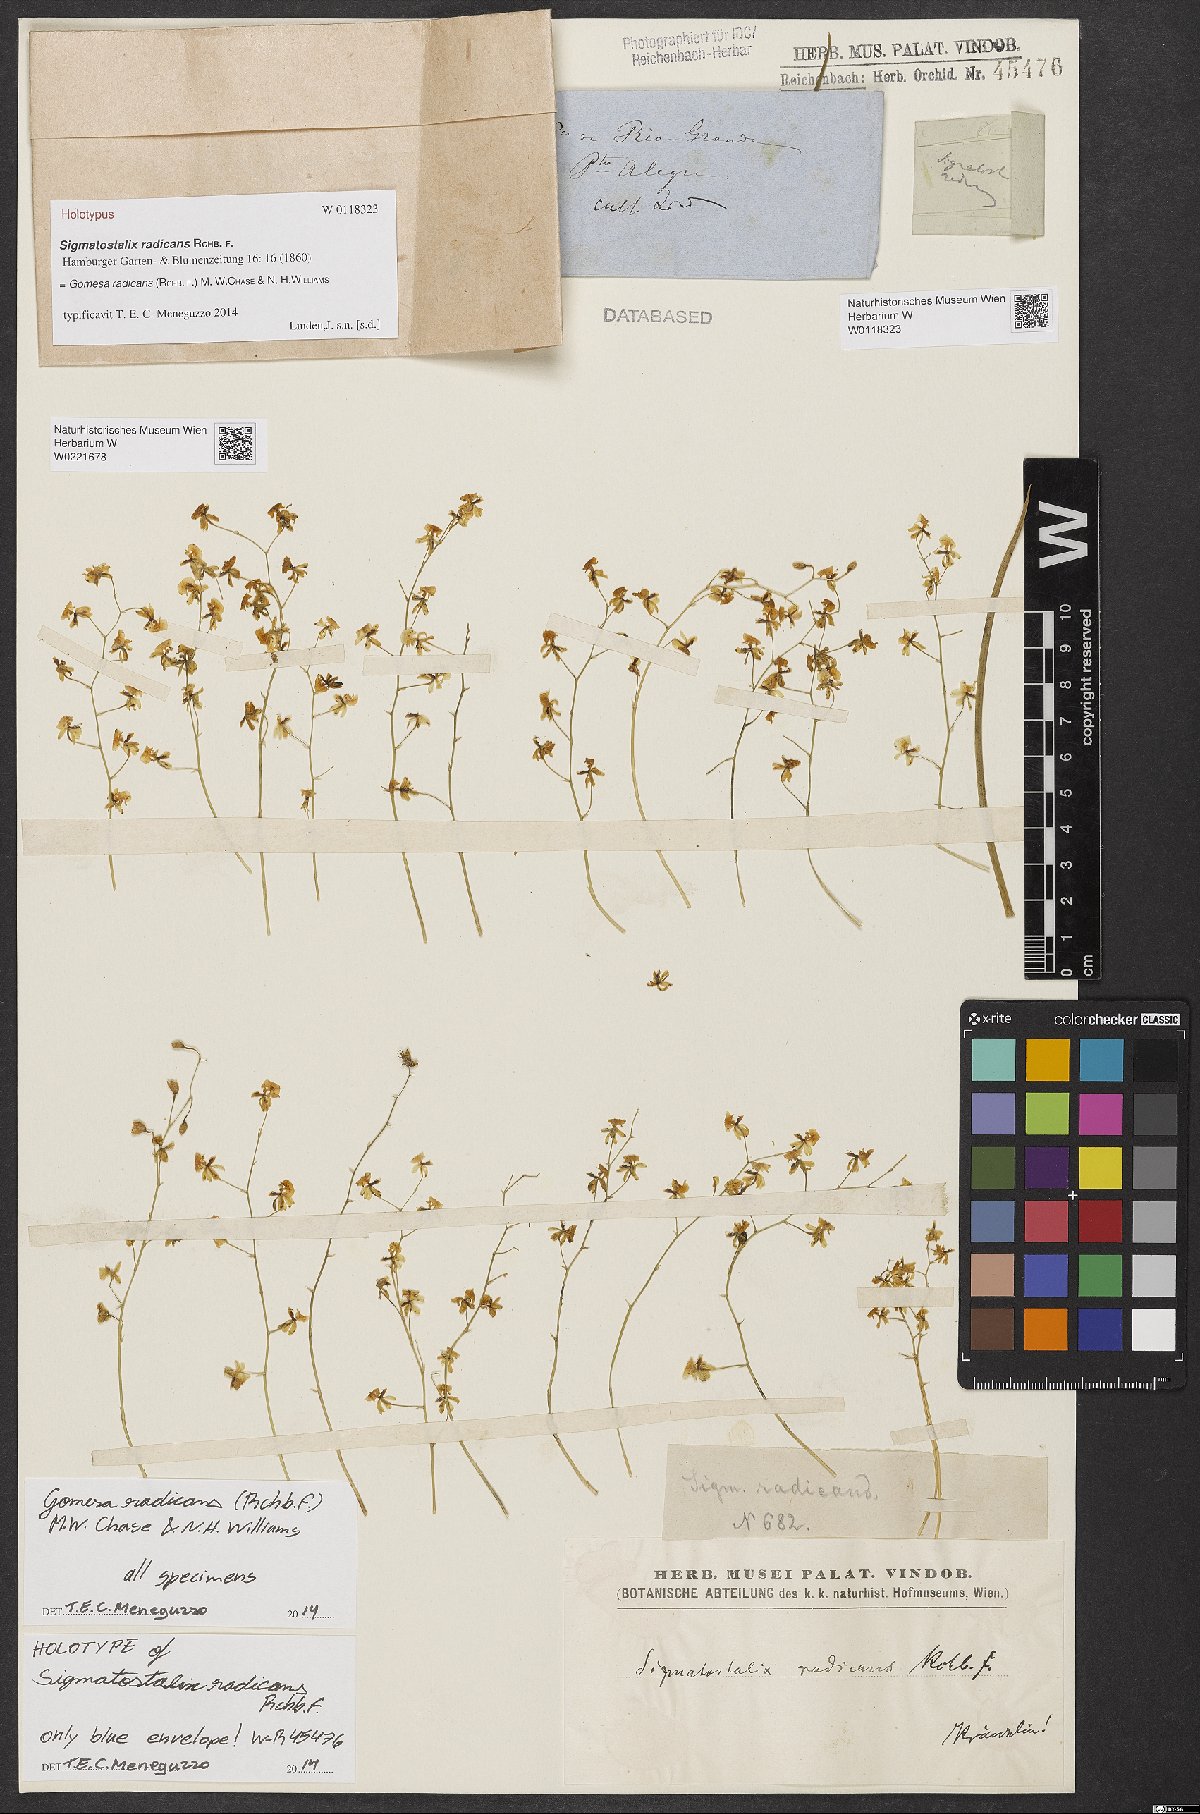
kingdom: Plantae
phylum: Tracheophyta
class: Liliopsida
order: Asparagales
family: Orchidaceae
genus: Gomesa
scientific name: Gomesa radicans
